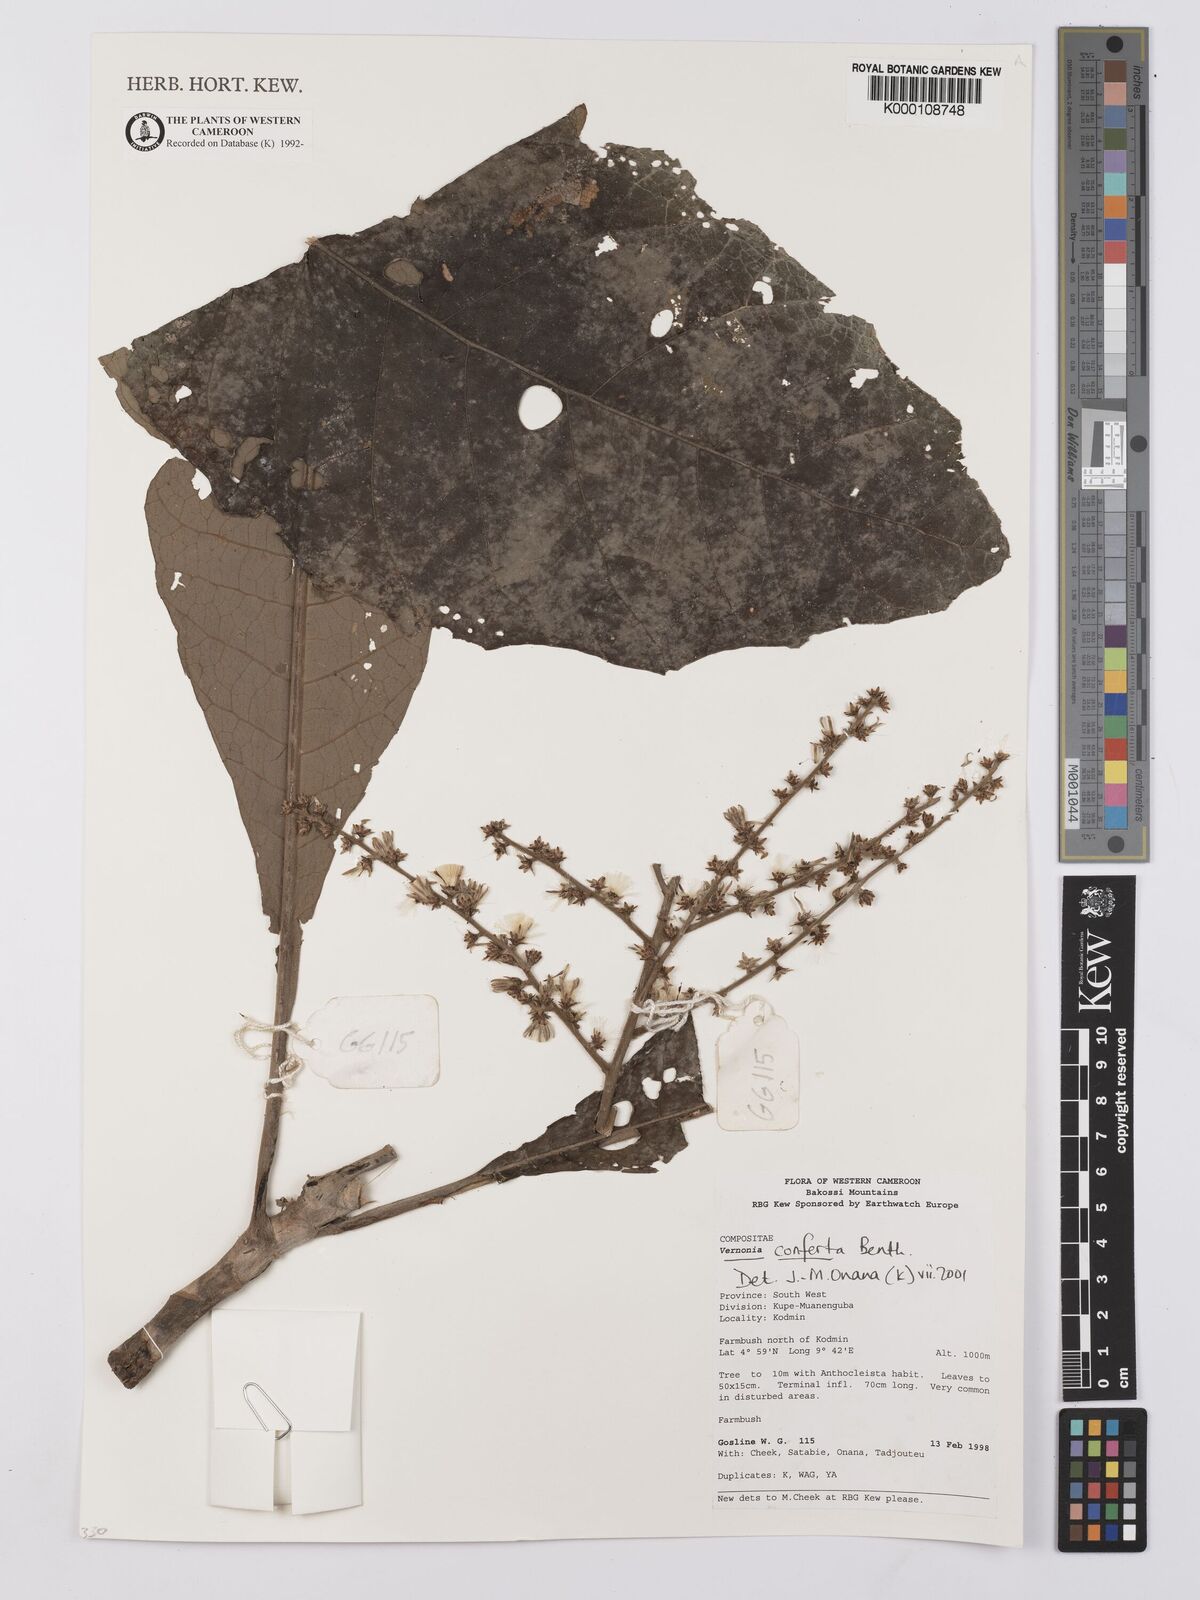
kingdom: Plantae
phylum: Tracheophyta
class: Magnoliopsida
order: Asterales
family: Asteraceae
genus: Brenandendron
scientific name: Brenandendron donianum
